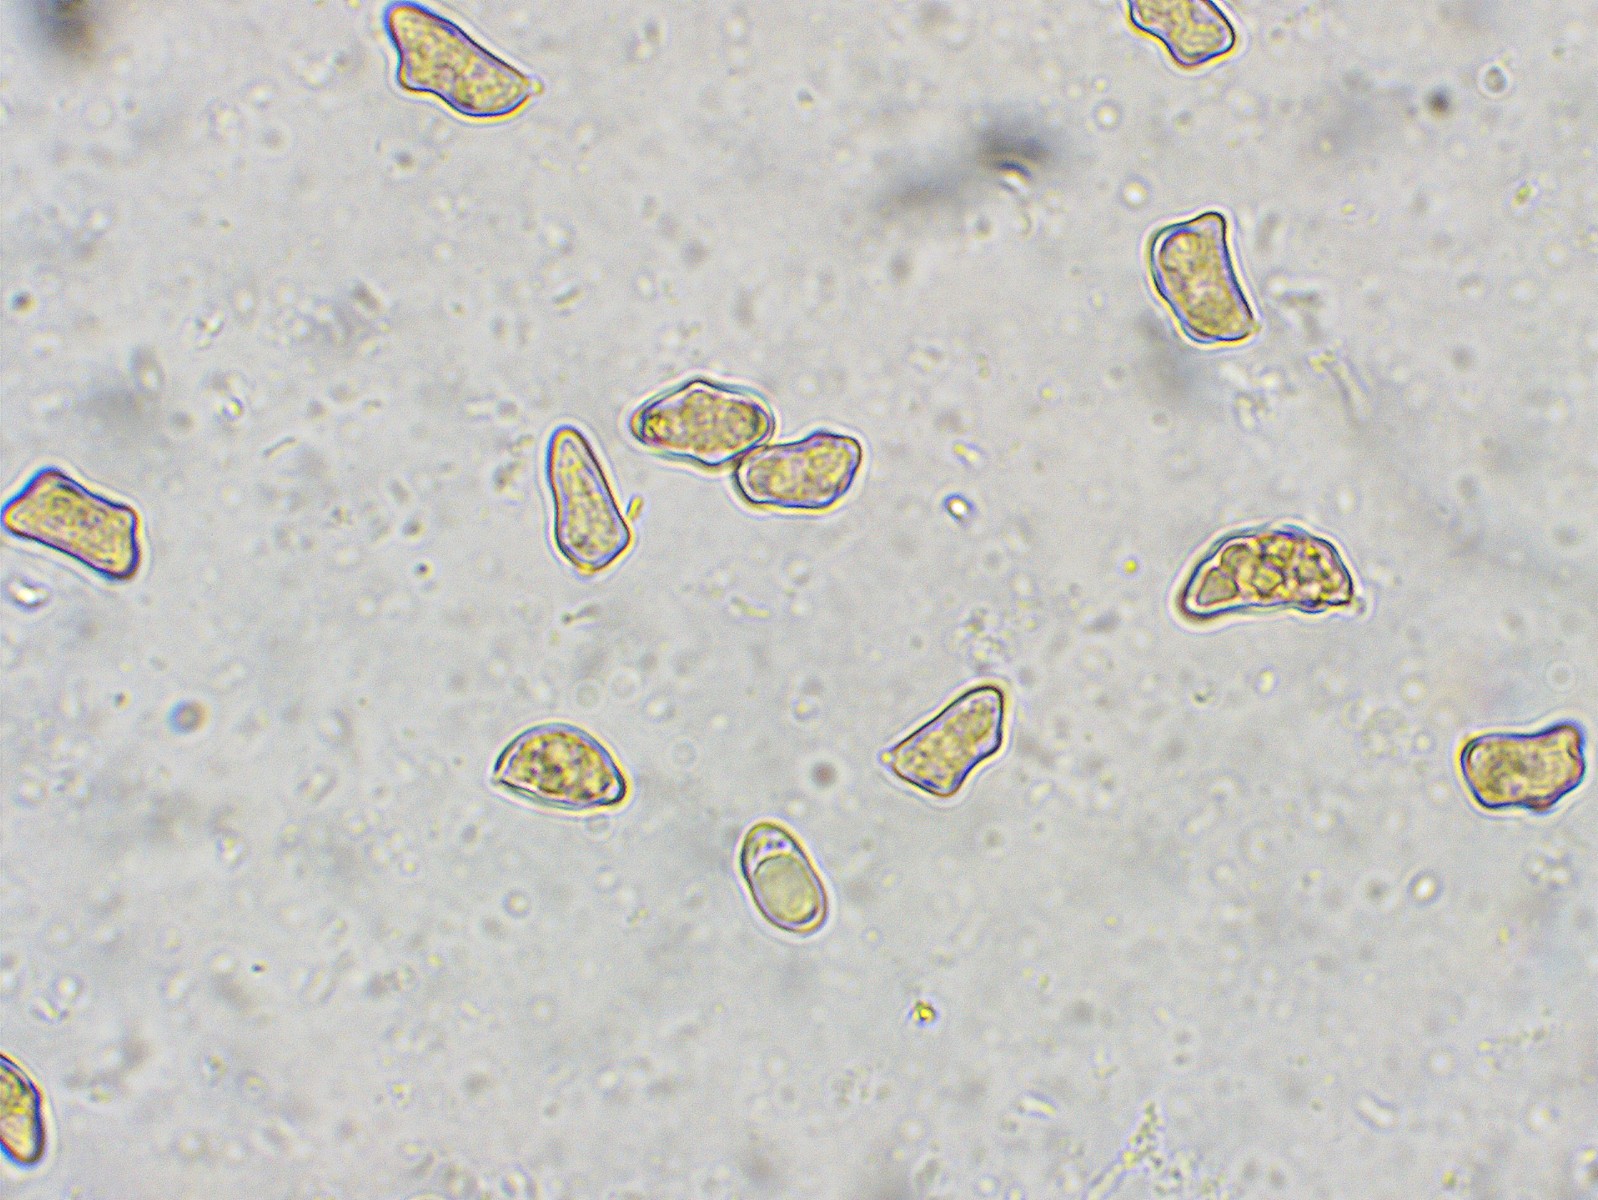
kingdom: Fungi
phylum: Basidiomycota
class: Agaricomycetes
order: Agaricales
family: Inocybaceae
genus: Inocybe
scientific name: Inocybe giacomi
